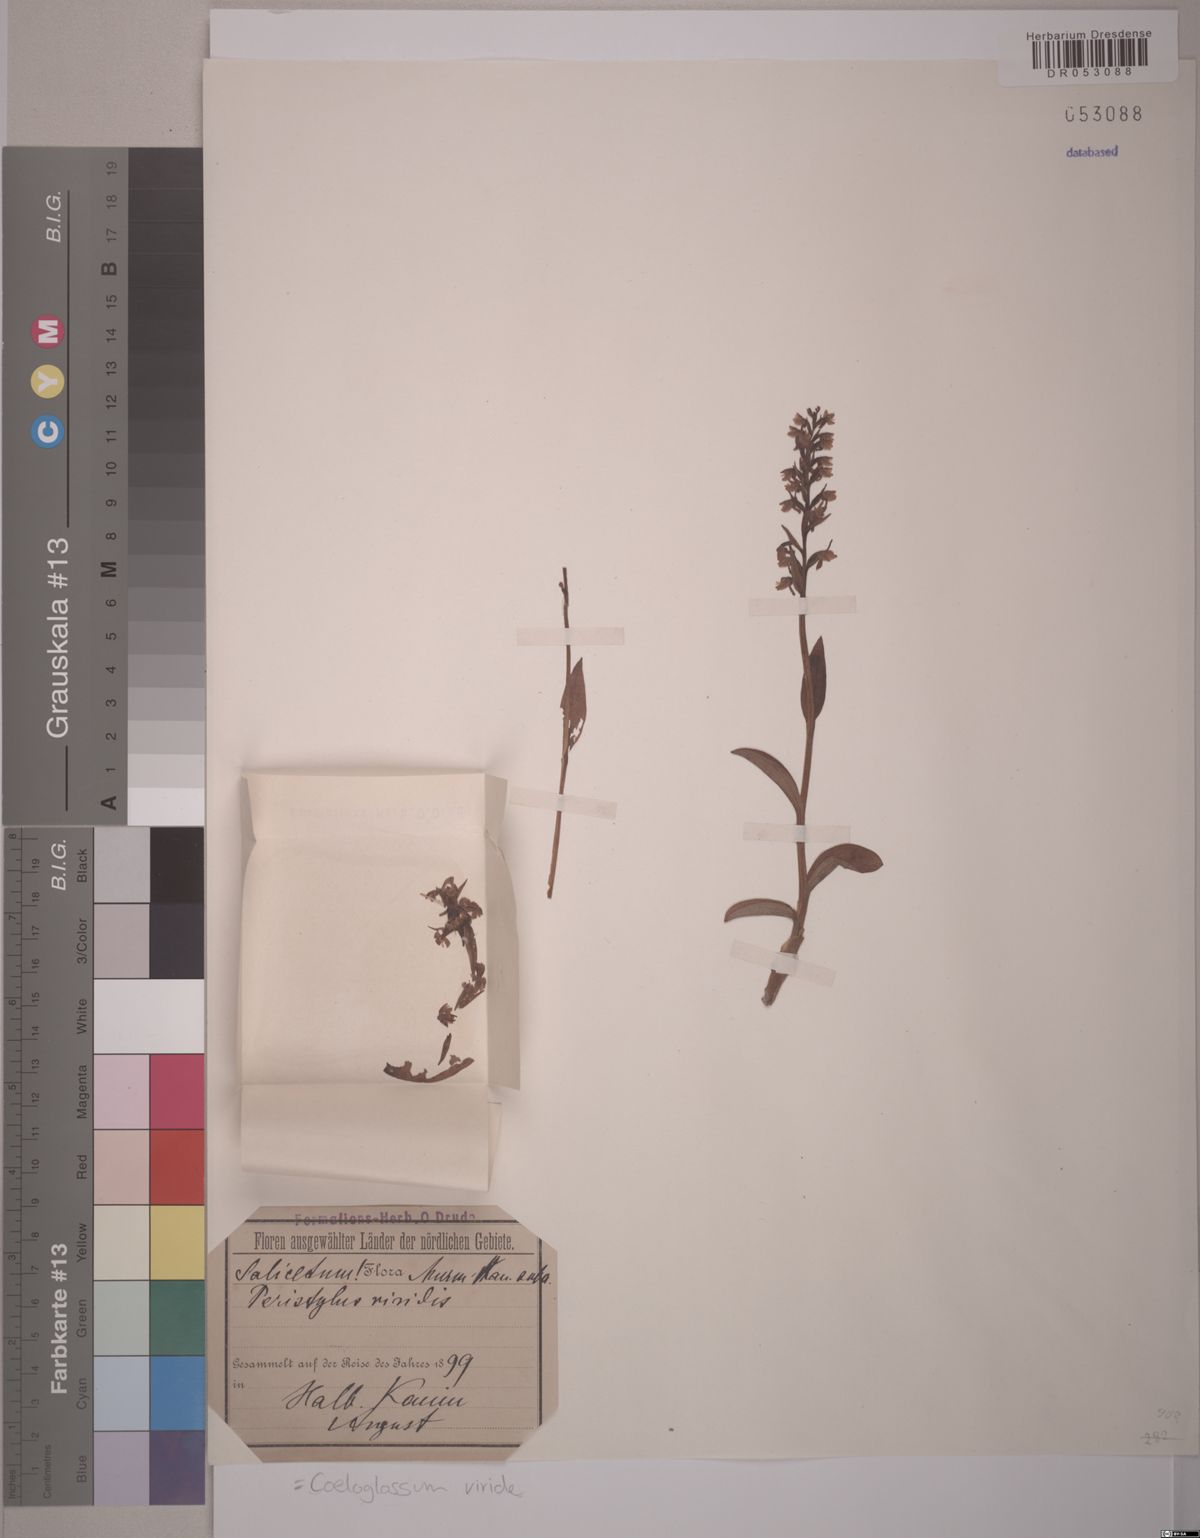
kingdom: Plantae
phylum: Tracheophyta
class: Liliopsida
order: Asparagales
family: Orchidaceae
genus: Dactylorhiza
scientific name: Dactylorhiza viridis
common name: Longbract frog orchid
